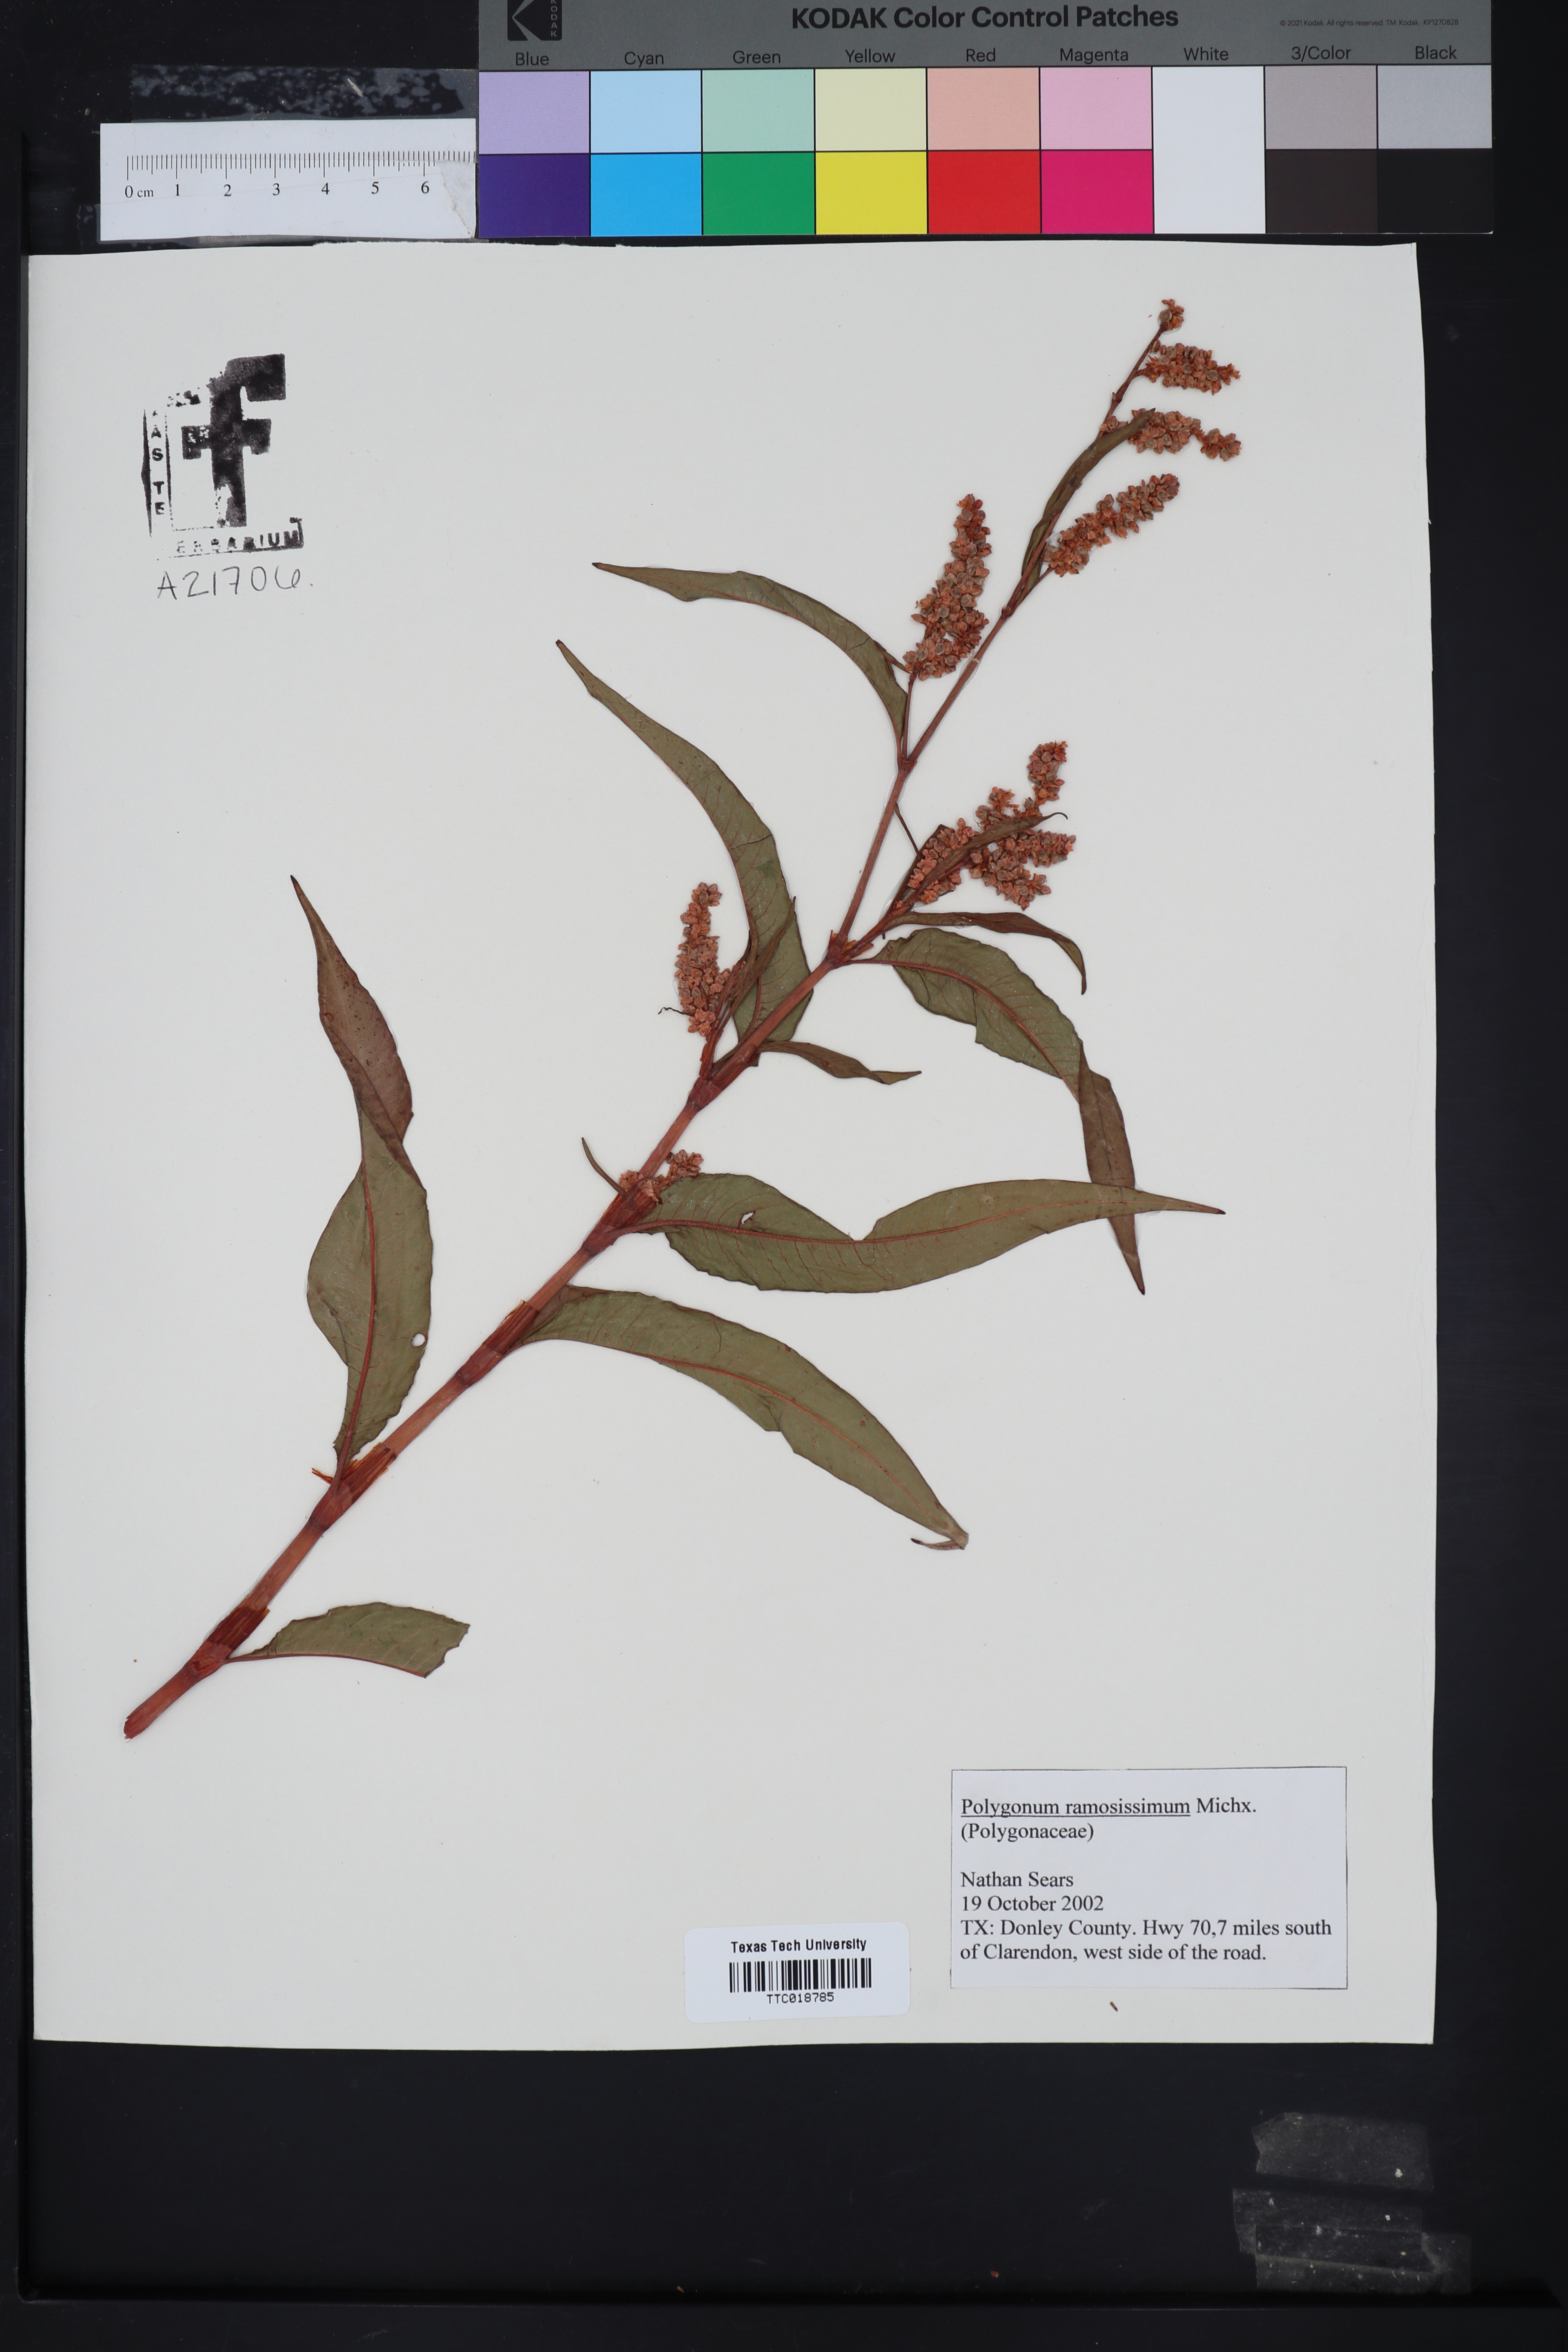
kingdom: Plantae
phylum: Tracheophyta
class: Magnoliopsida
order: Caryophyllales
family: Polygonaceae
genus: Polygonum
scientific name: Polygonum ramosissimum
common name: Bushy knotweed
